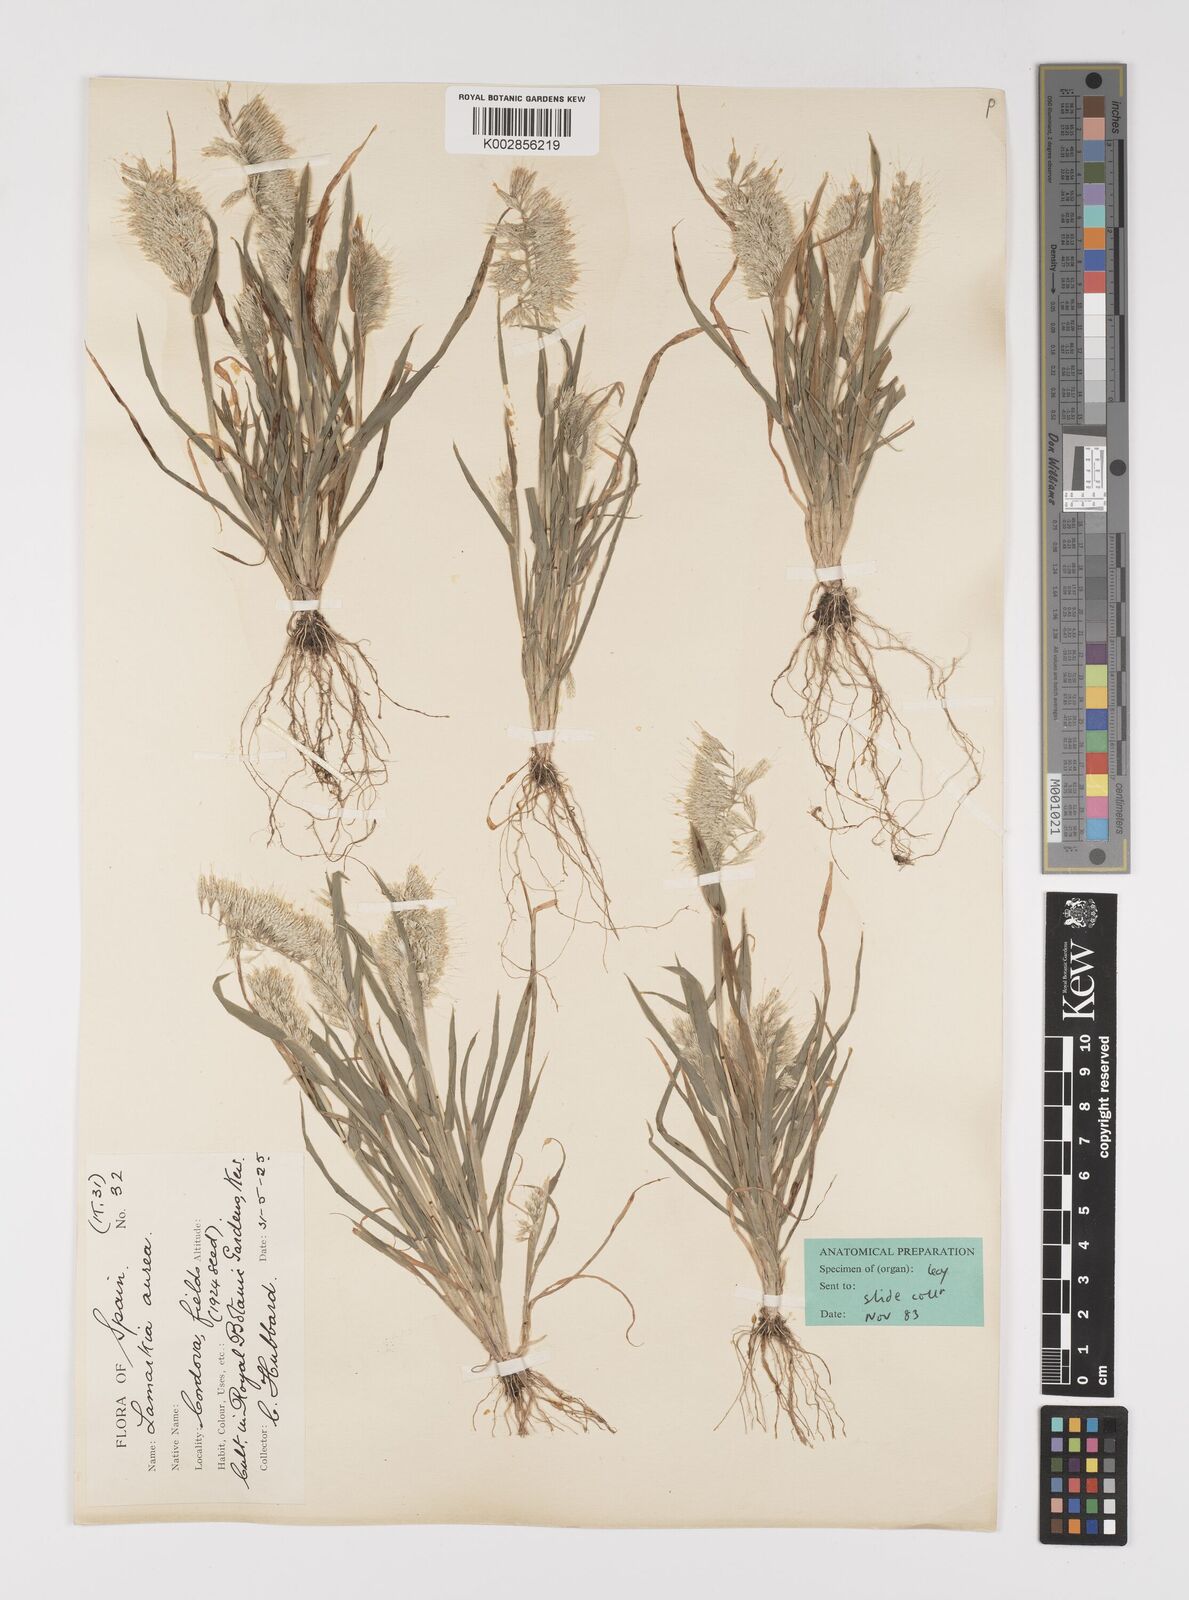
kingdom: Plantae
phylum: Tracheophyta
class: Liliopsida
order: Poales
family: Poaceae
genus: Lamarckia
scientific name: Lamarckia aurea
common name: Golden dog's-tail
